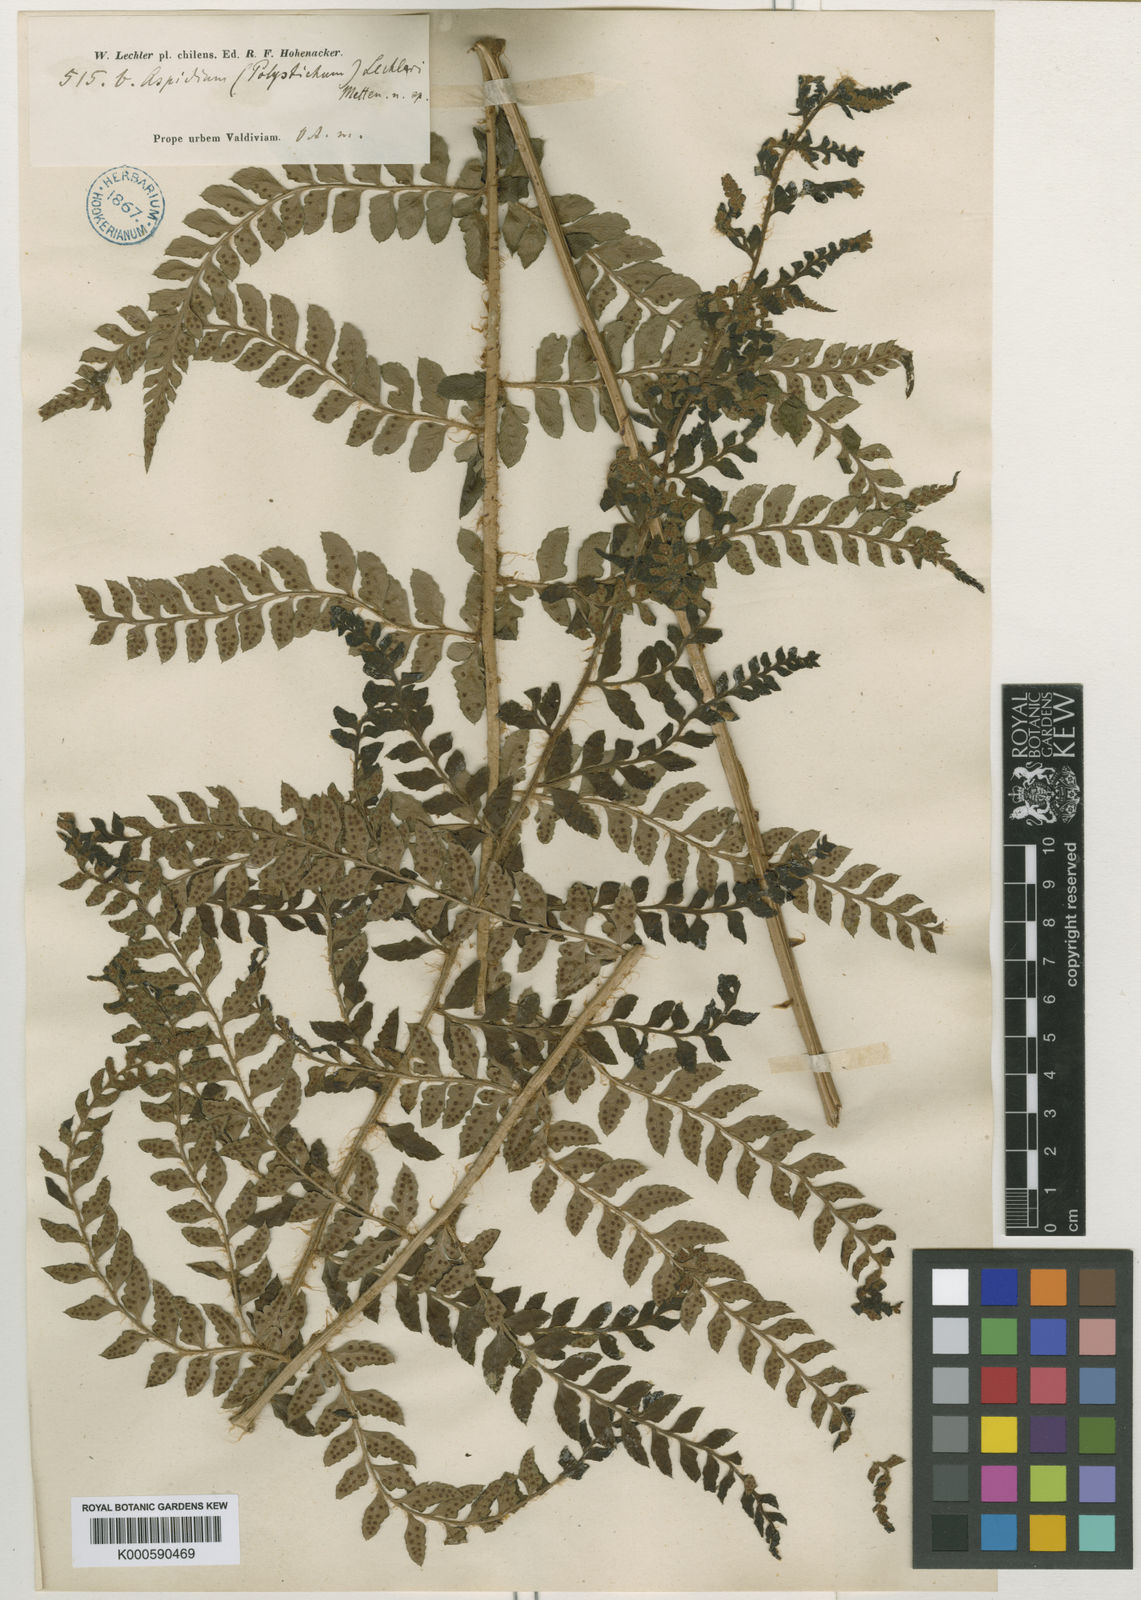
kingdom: Plantae
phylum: Tracheophyta
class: Polypodiopsida
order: Polypodiales
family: Dryopteridaceae
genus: Polystichum
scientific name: Polystichum
